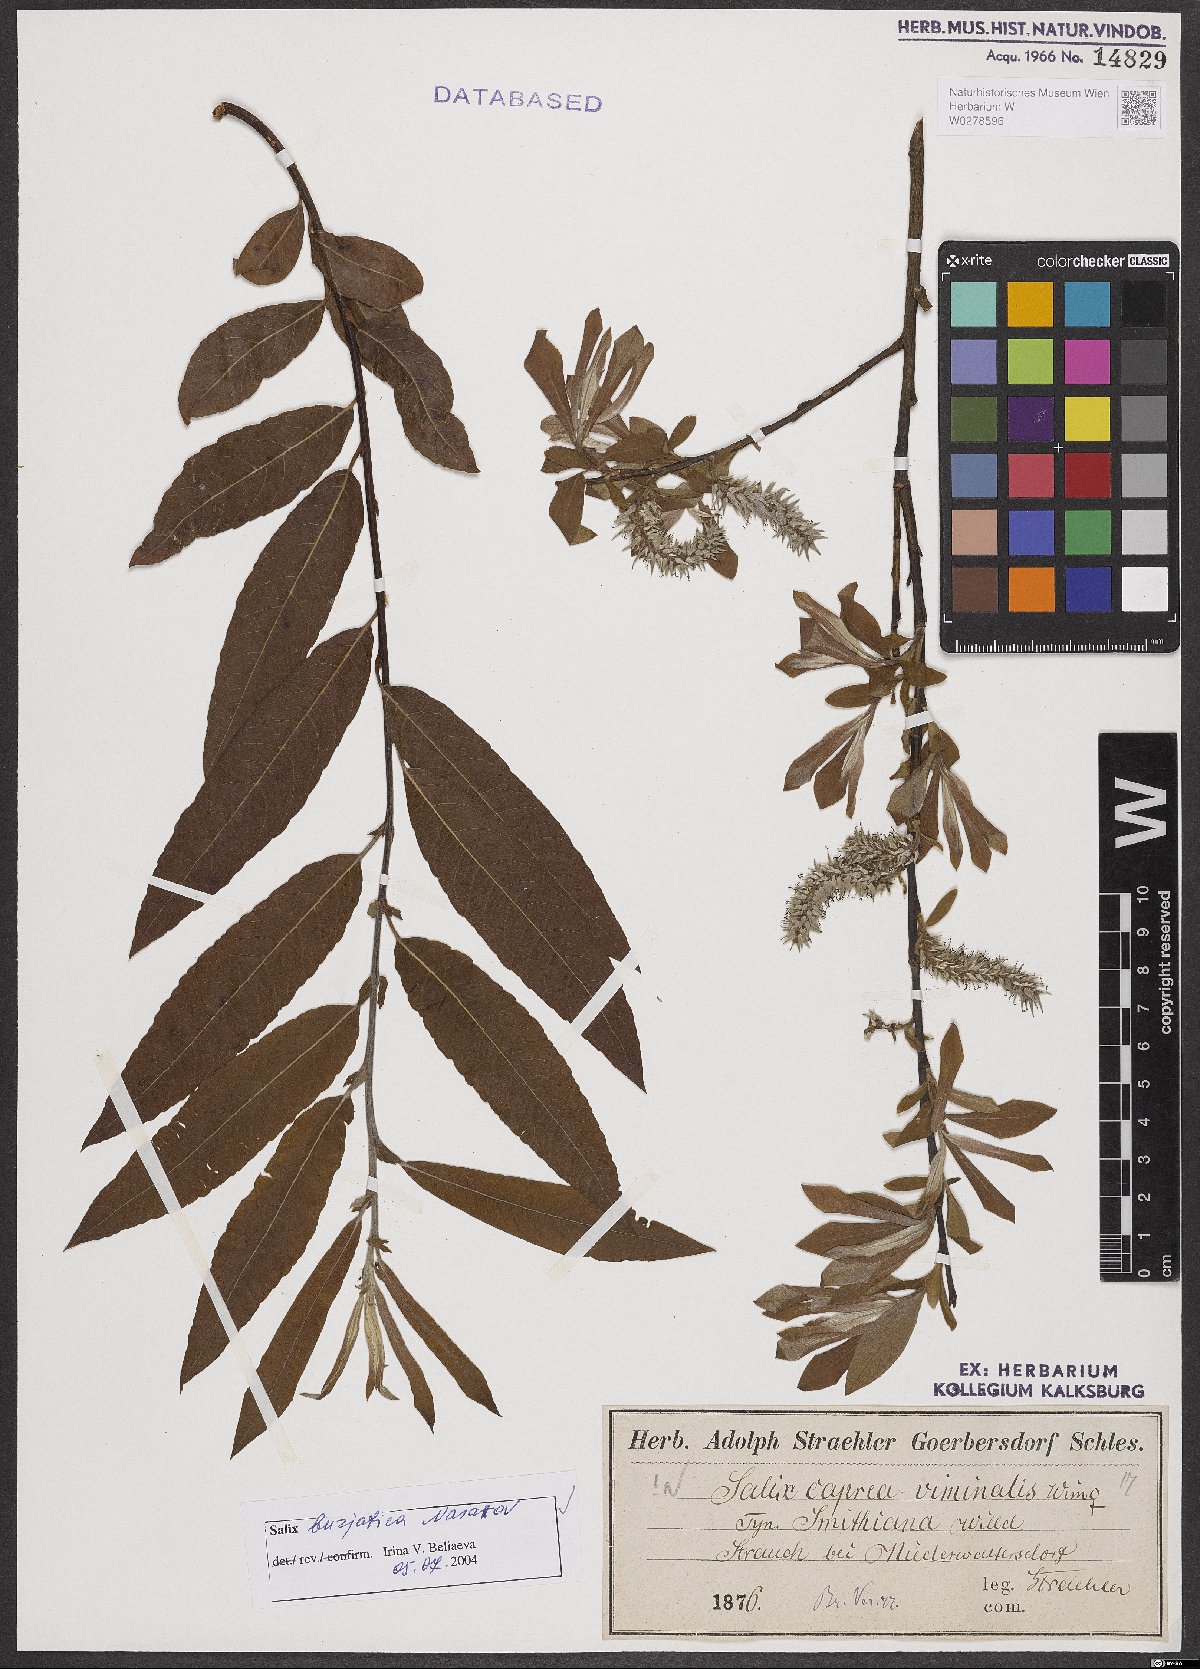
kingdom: Plantae
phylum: Tracheophyta
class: Magnoliopsida
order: Malpighiales
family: Salicaceae
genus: Salix
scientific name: Salix gmelinii
